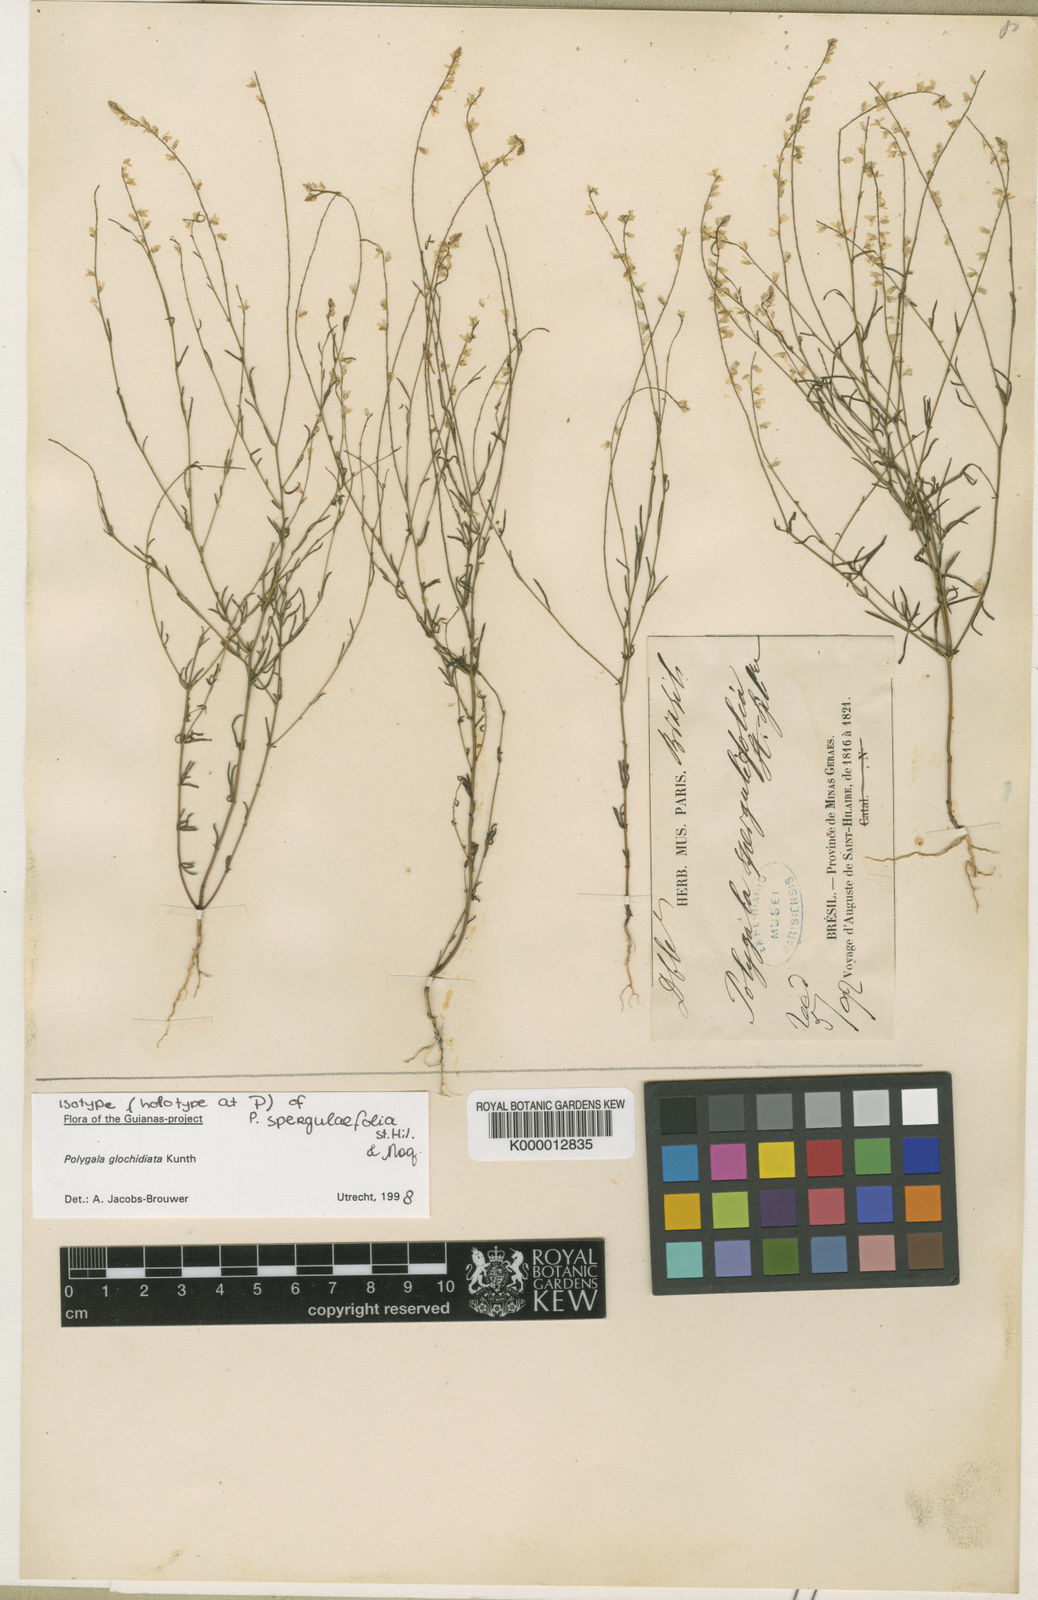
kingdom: Plantae
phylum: Tracheophyta
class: Magnoliopsida
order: Fabales
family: Polygalaceae
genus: Polygala
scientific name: Polygala glochidiata
